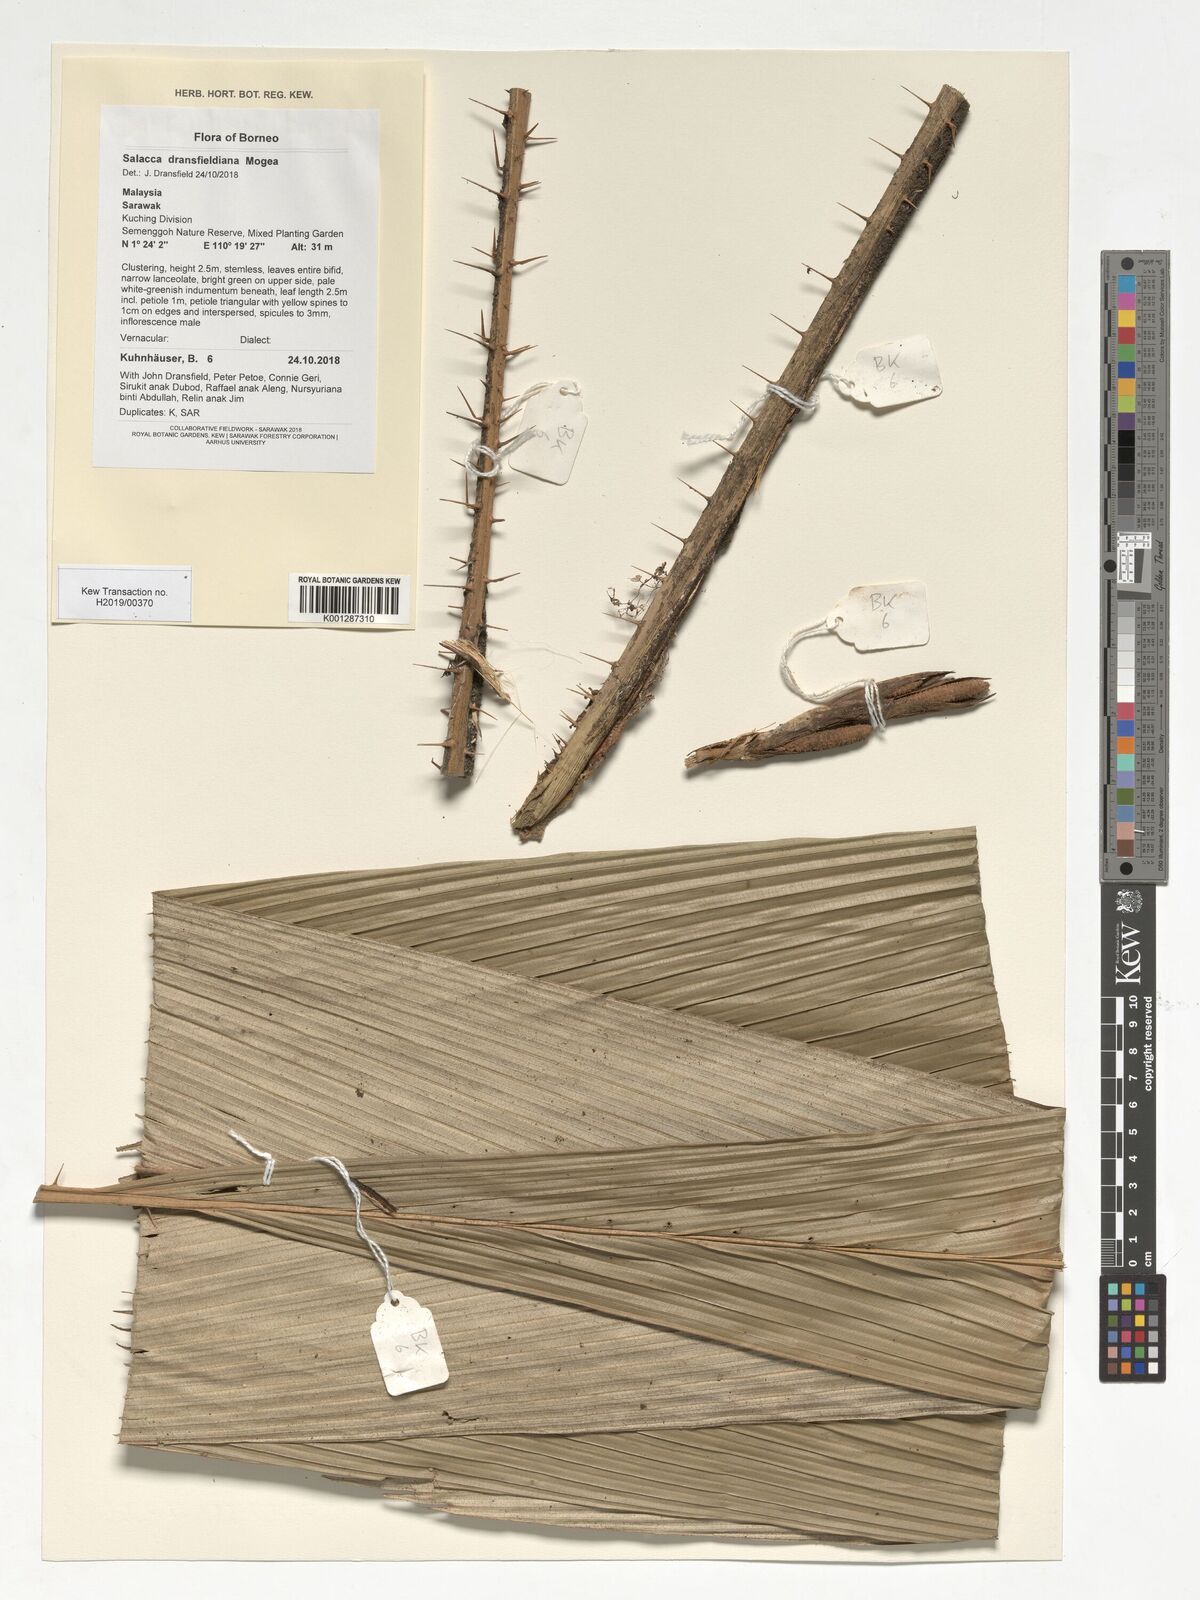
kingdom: Plantae
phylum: Tracheophyta
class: Liliopsida
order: Arecales
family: Arecaceae
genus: Salacca
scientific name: Salacca dransfieldiana
